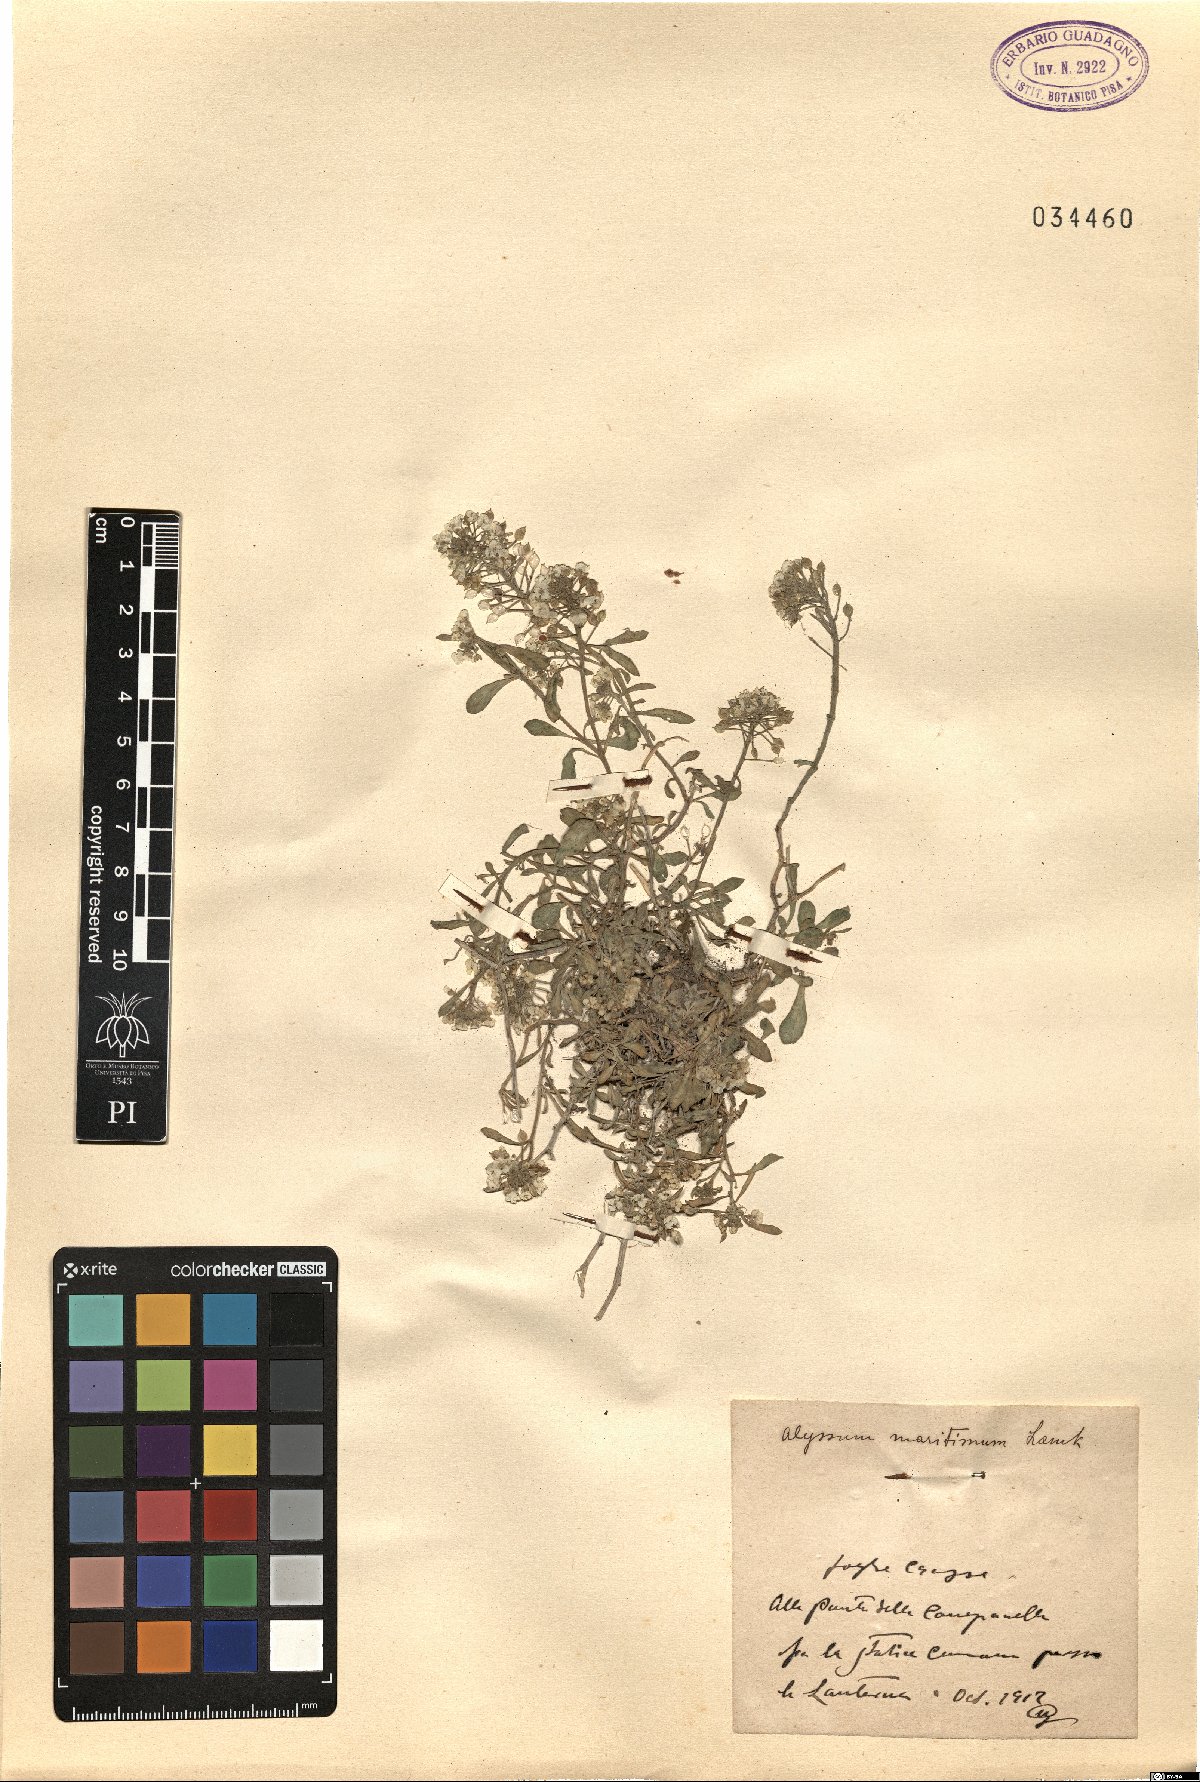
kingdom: Plantae
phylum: Tracheophyta
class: Magnoliopsida
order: Brassicales
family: Brassicaceae
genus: Lobularia
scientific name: Lobularia maritima
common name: Sweet alison
